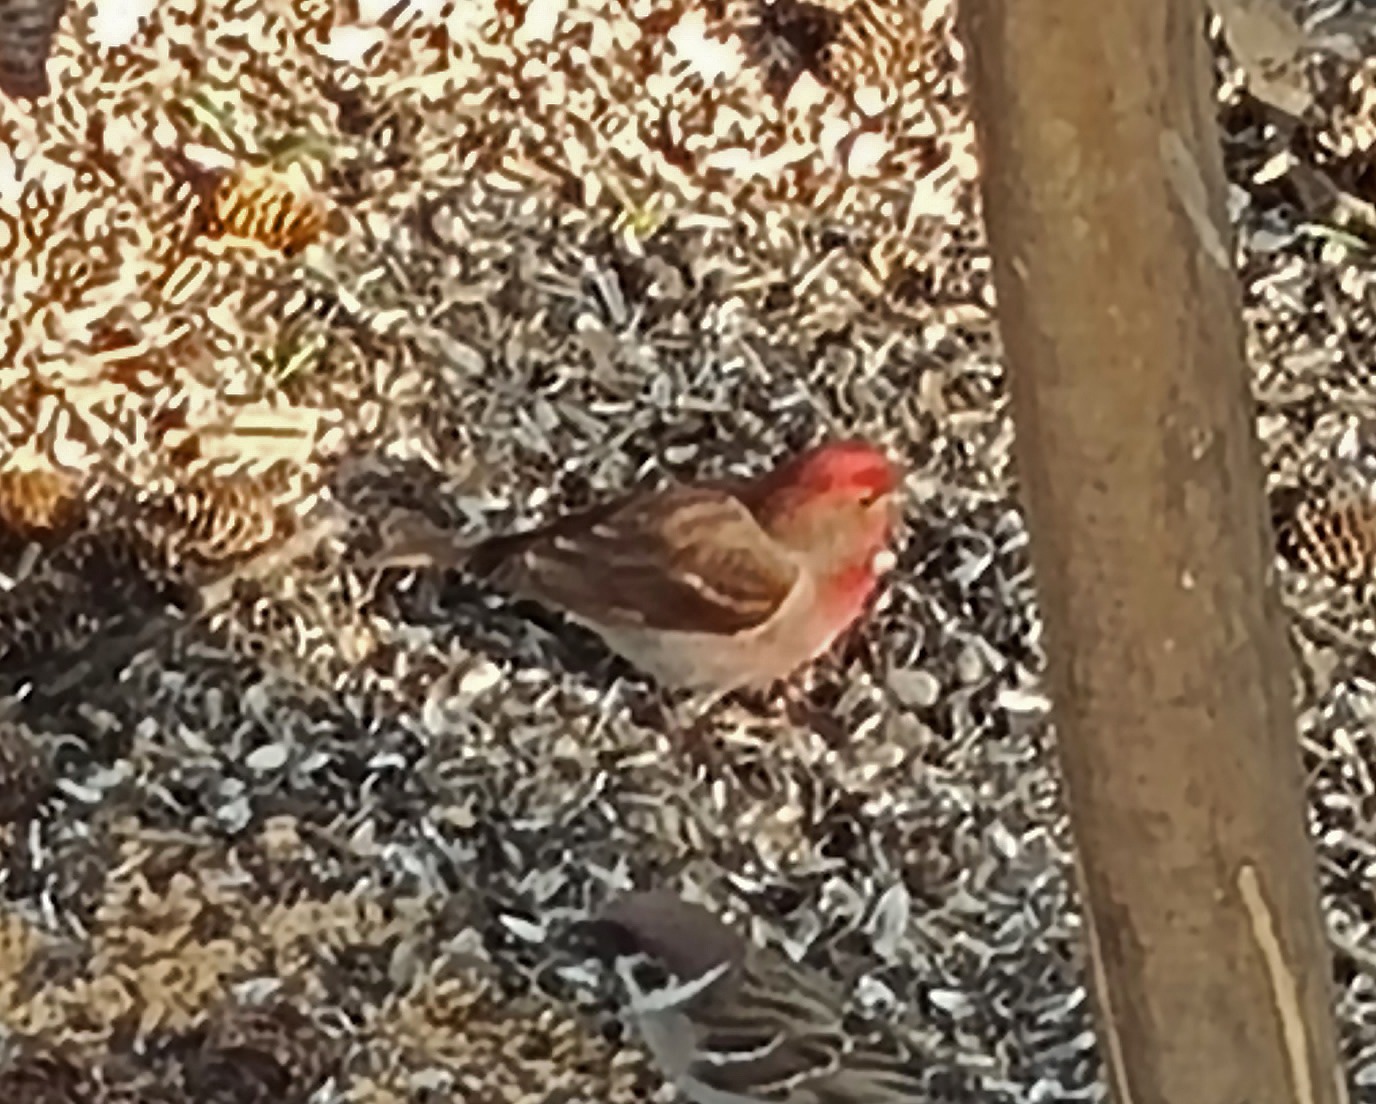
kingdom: Animalia
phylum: Chordata
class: Aves
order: Passeriformes
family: Fringillidae
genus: Carpodacus
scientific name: Carpodacus erythrinus
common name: Karmindompap
